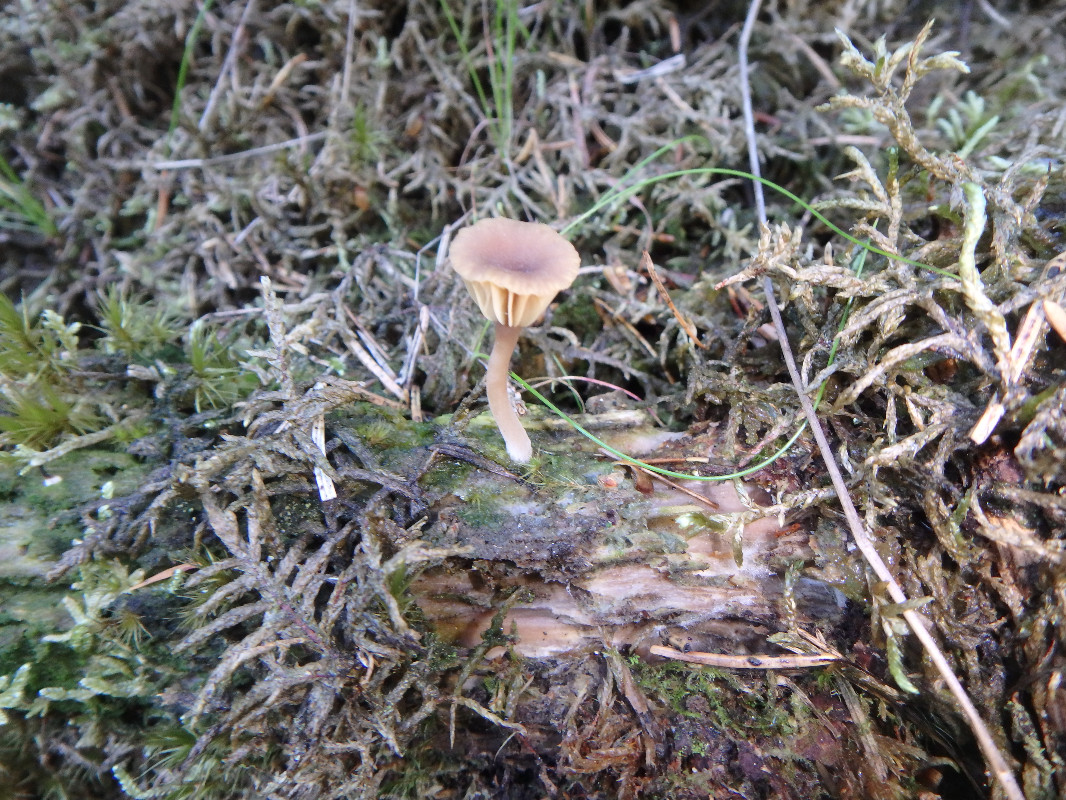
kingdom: Fungi
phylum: Basidiomycota
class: Agaricomycetes
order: Agaricales
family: Hygrophoraceae
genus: Lichenomphalia
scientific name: Lichenomphalia umbellifera
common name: tørve-lavhat
